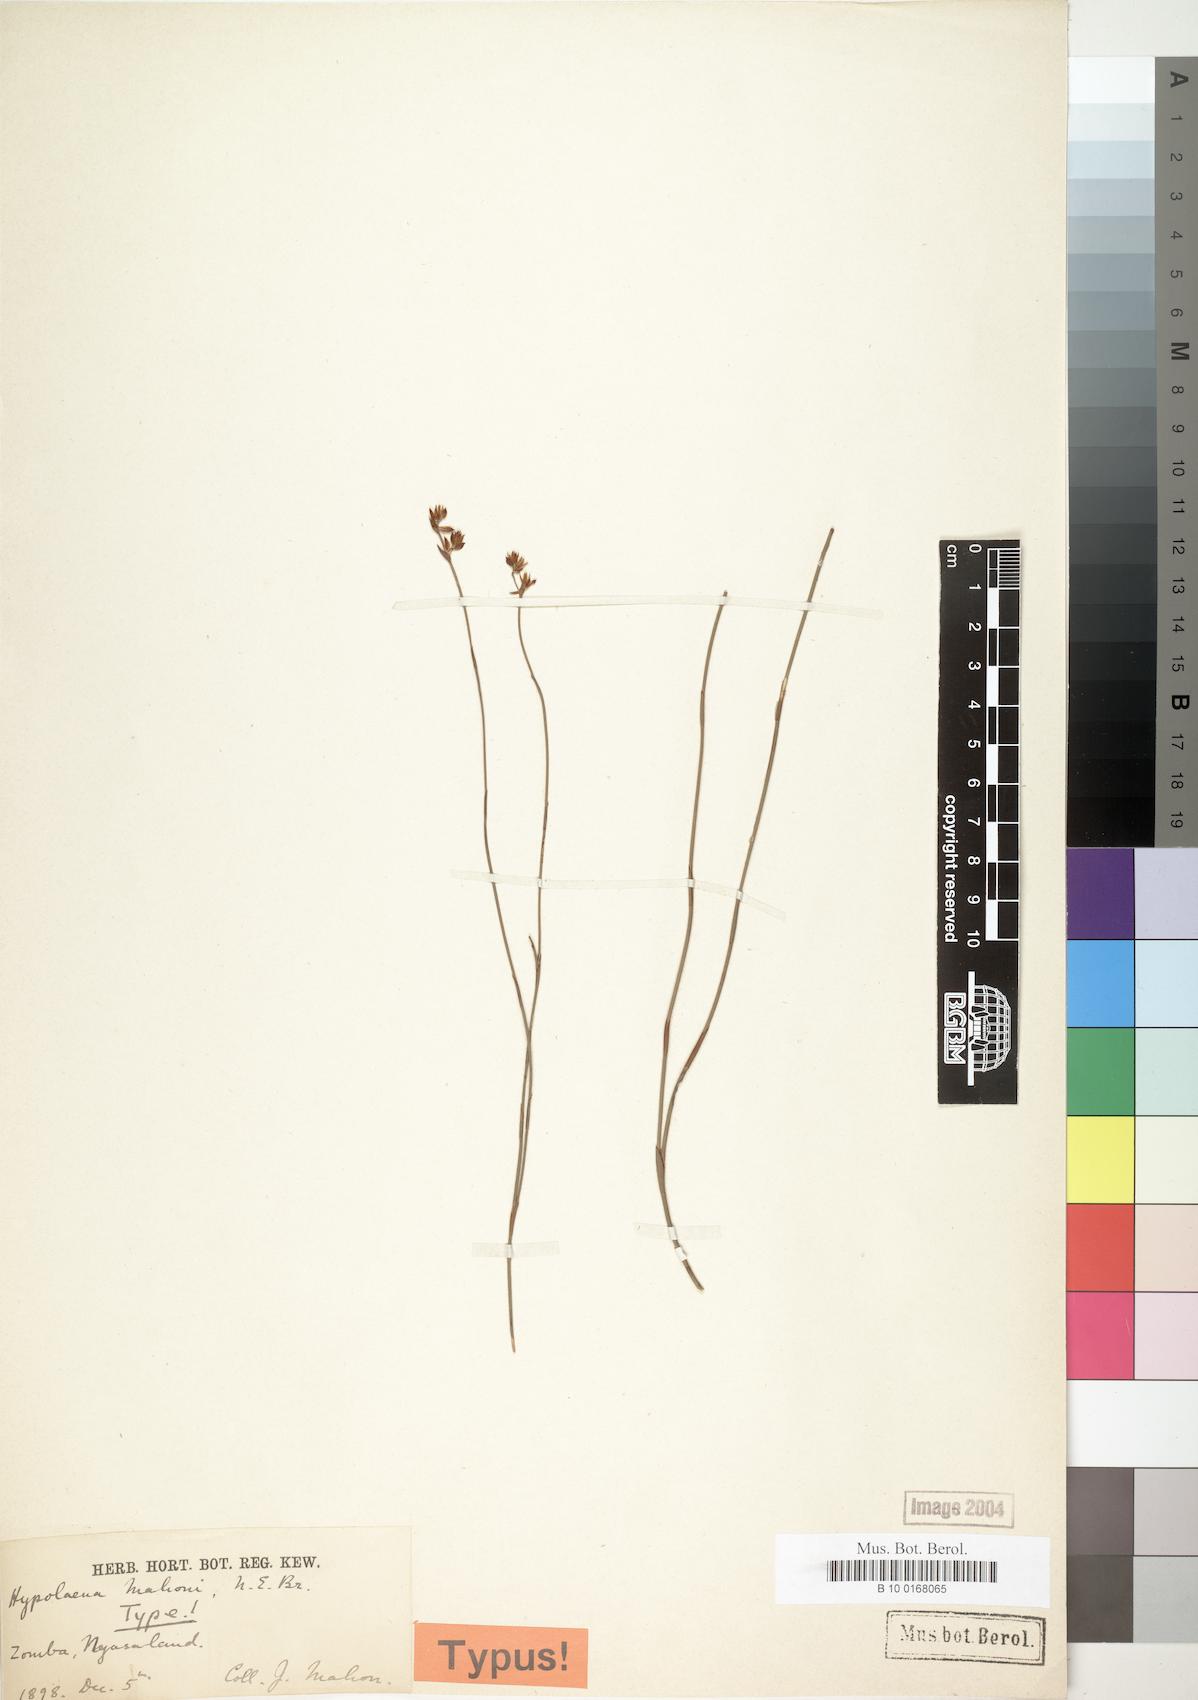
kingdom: Plantae
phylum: Tracheophyta
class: Liliopsida
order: Poales
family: Restionaceae
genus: Platycaulos
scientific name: Platycaulos mahonii
